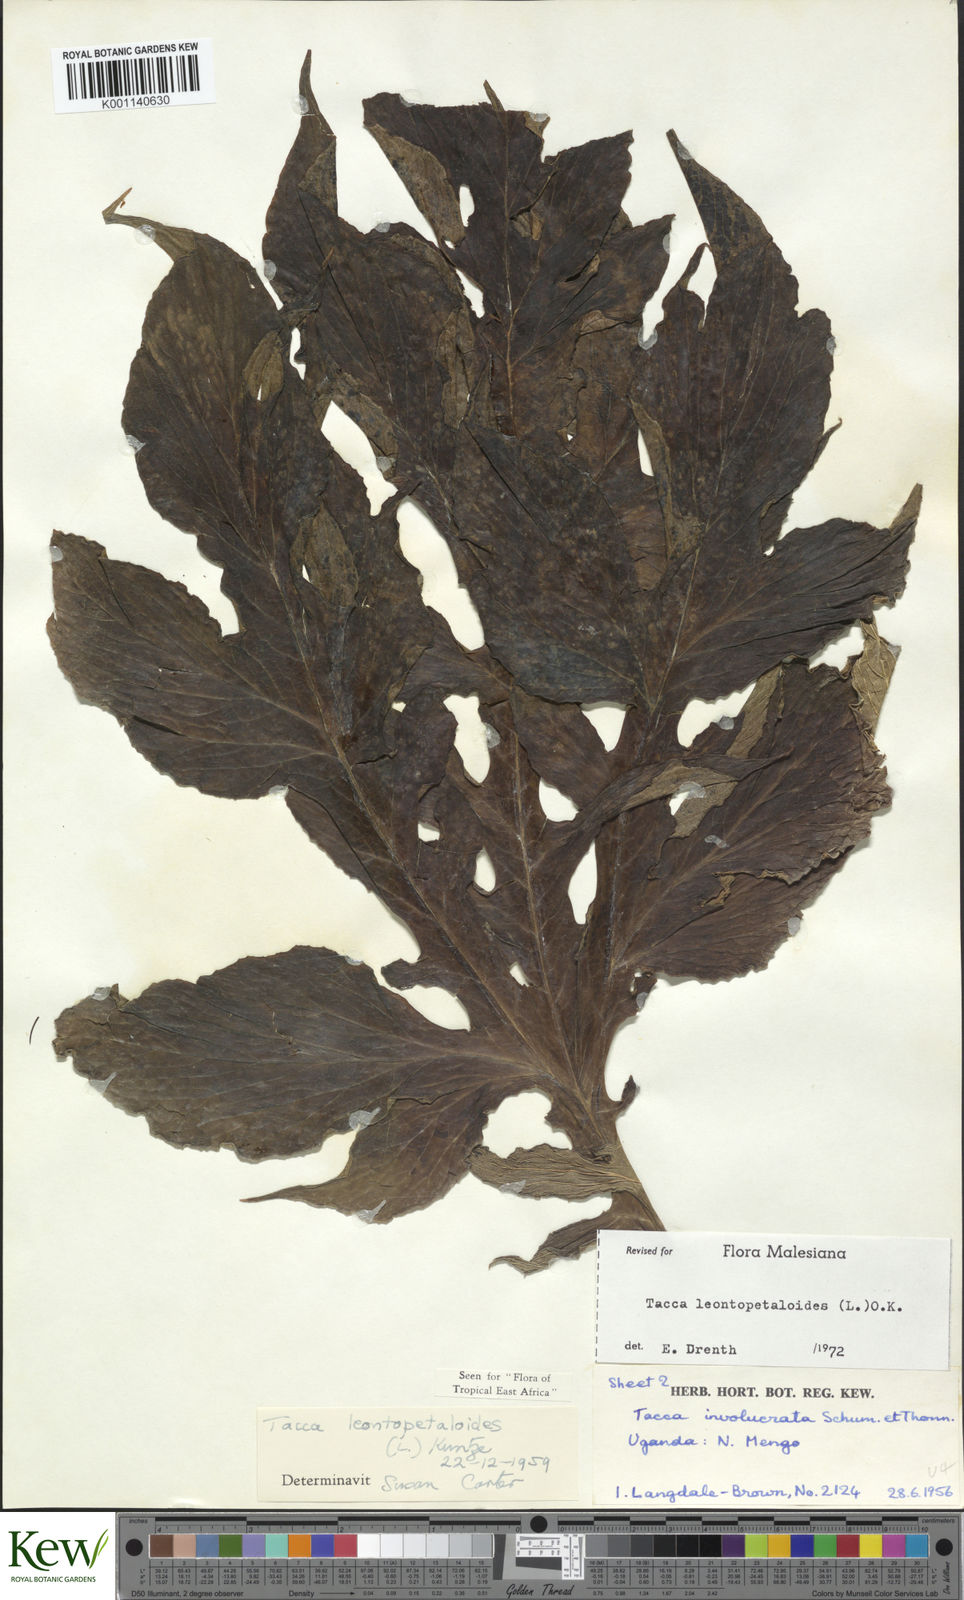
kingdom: Plantae
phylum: Tracheophyta
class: Liliopsida
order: Dioscoreales
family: Dioscoreaceae
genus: Tacca
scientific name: Tacca leontopetaloides
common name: Arrowroot
